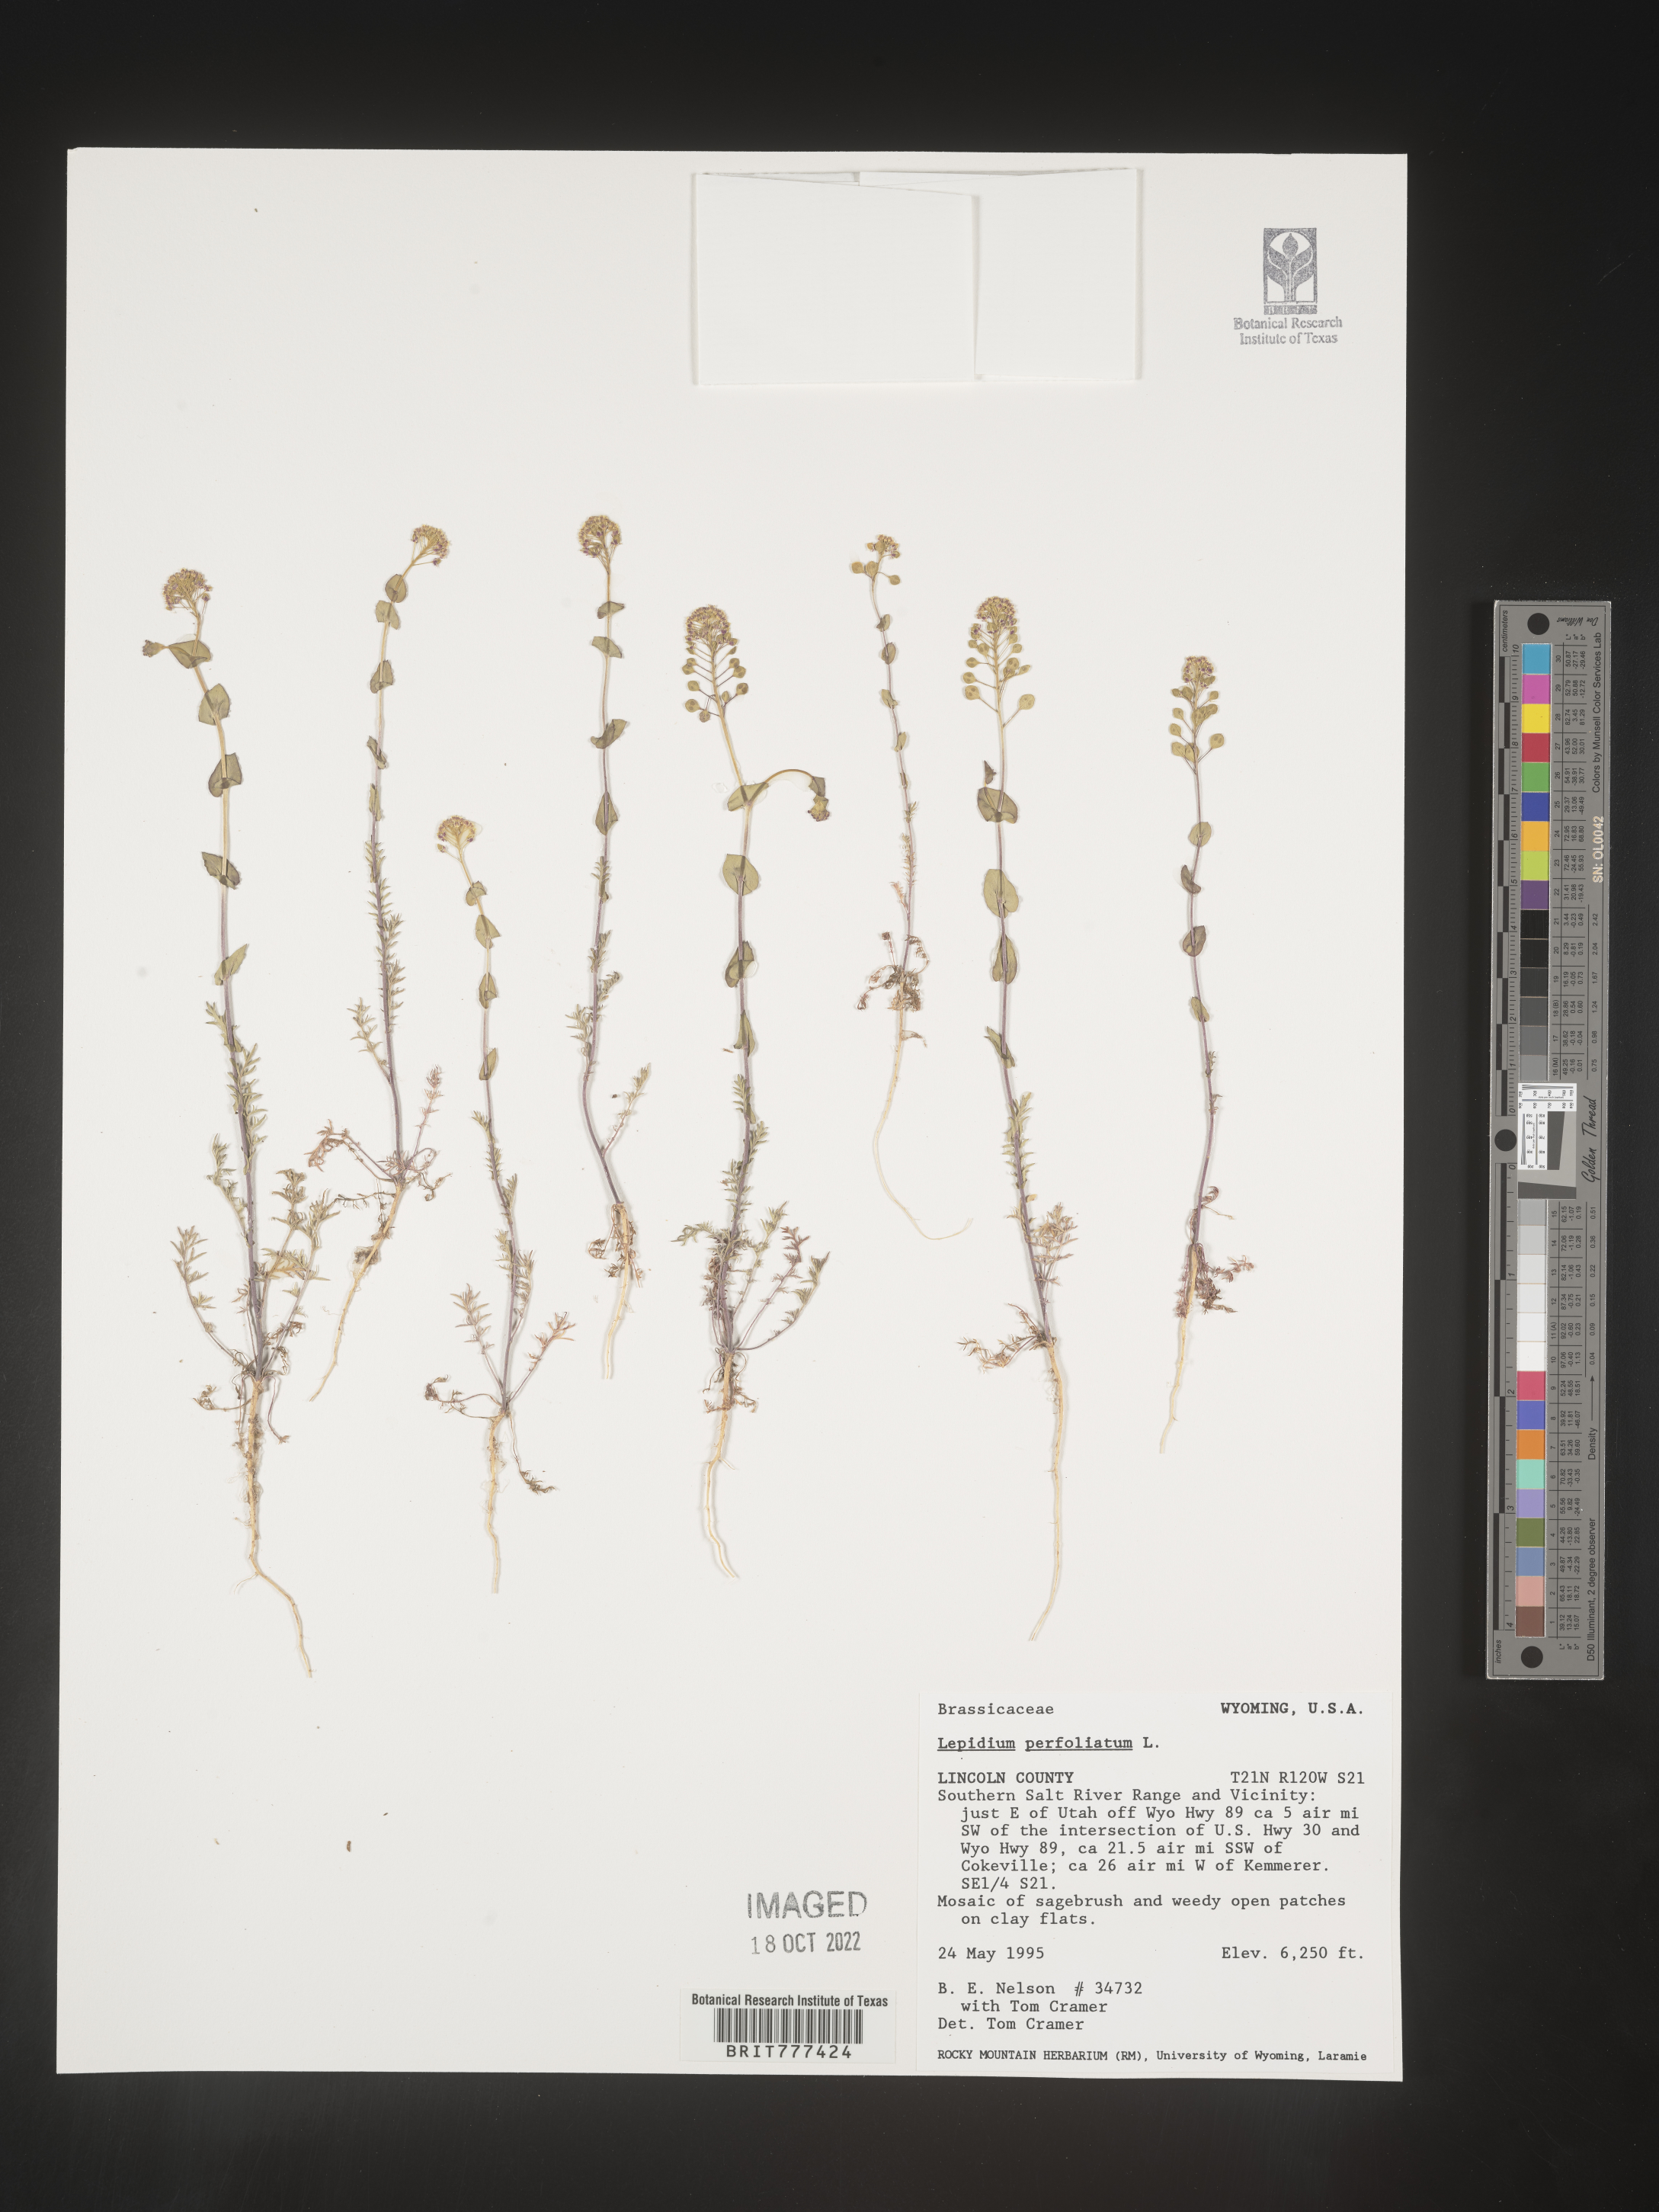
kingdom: Plantae
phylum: Tracheophyta
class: Magnoliopsida
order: Brassicales
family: Brassicaceae
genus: Lepidium
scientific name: Lepidium perfoliatum
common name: Perfoliate pepperwort
